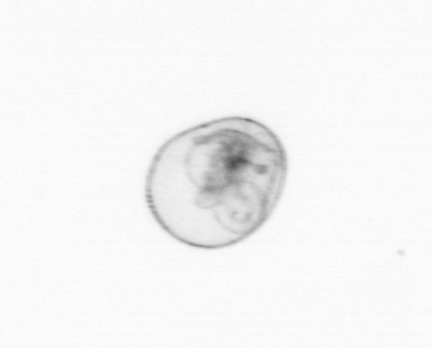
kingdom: Chromista
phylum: Myzozoa
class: Dinophyceae
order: Noctilucales
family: Noctilucaceae
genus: Noctiluca
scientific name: Noctiluca scintillans
